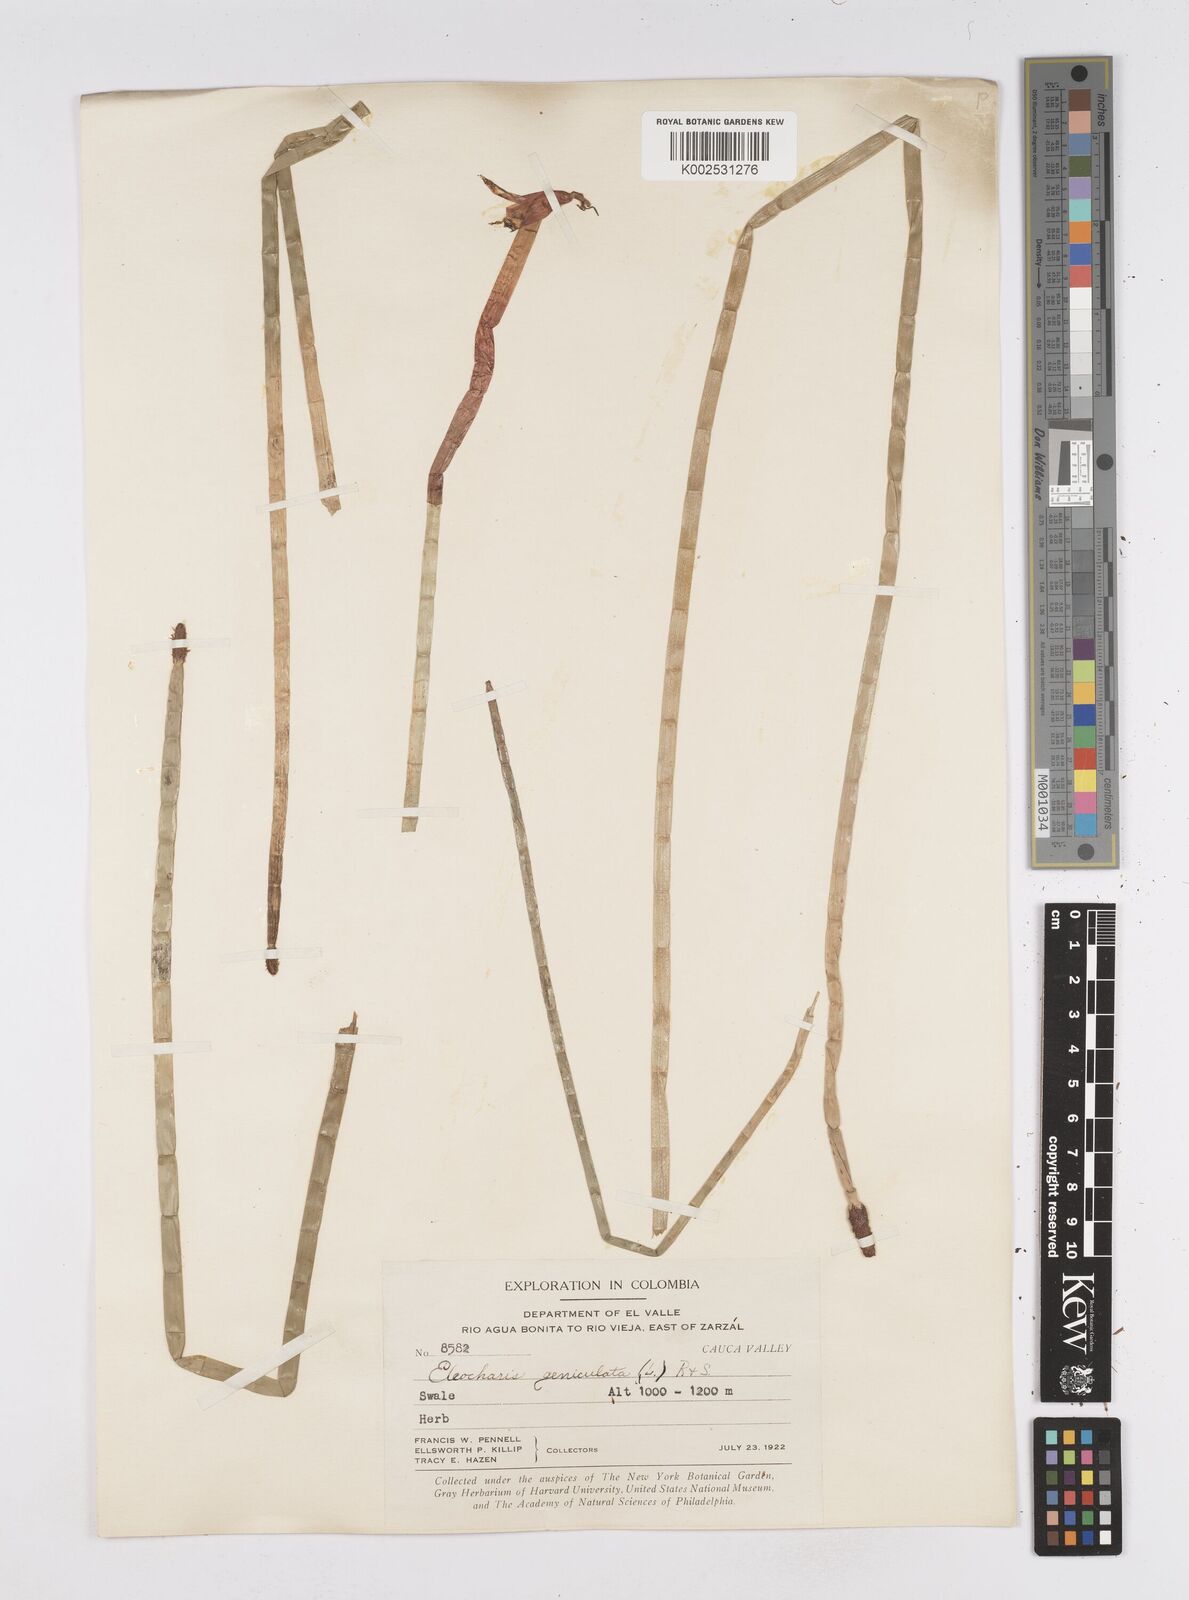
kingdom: Plantae
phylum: Tracheophyta
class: Liliopsida
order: Poales
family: Cyperaceae
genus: Eleocharis
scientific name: Eleocharis elegans
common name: Elegant spike-rush
